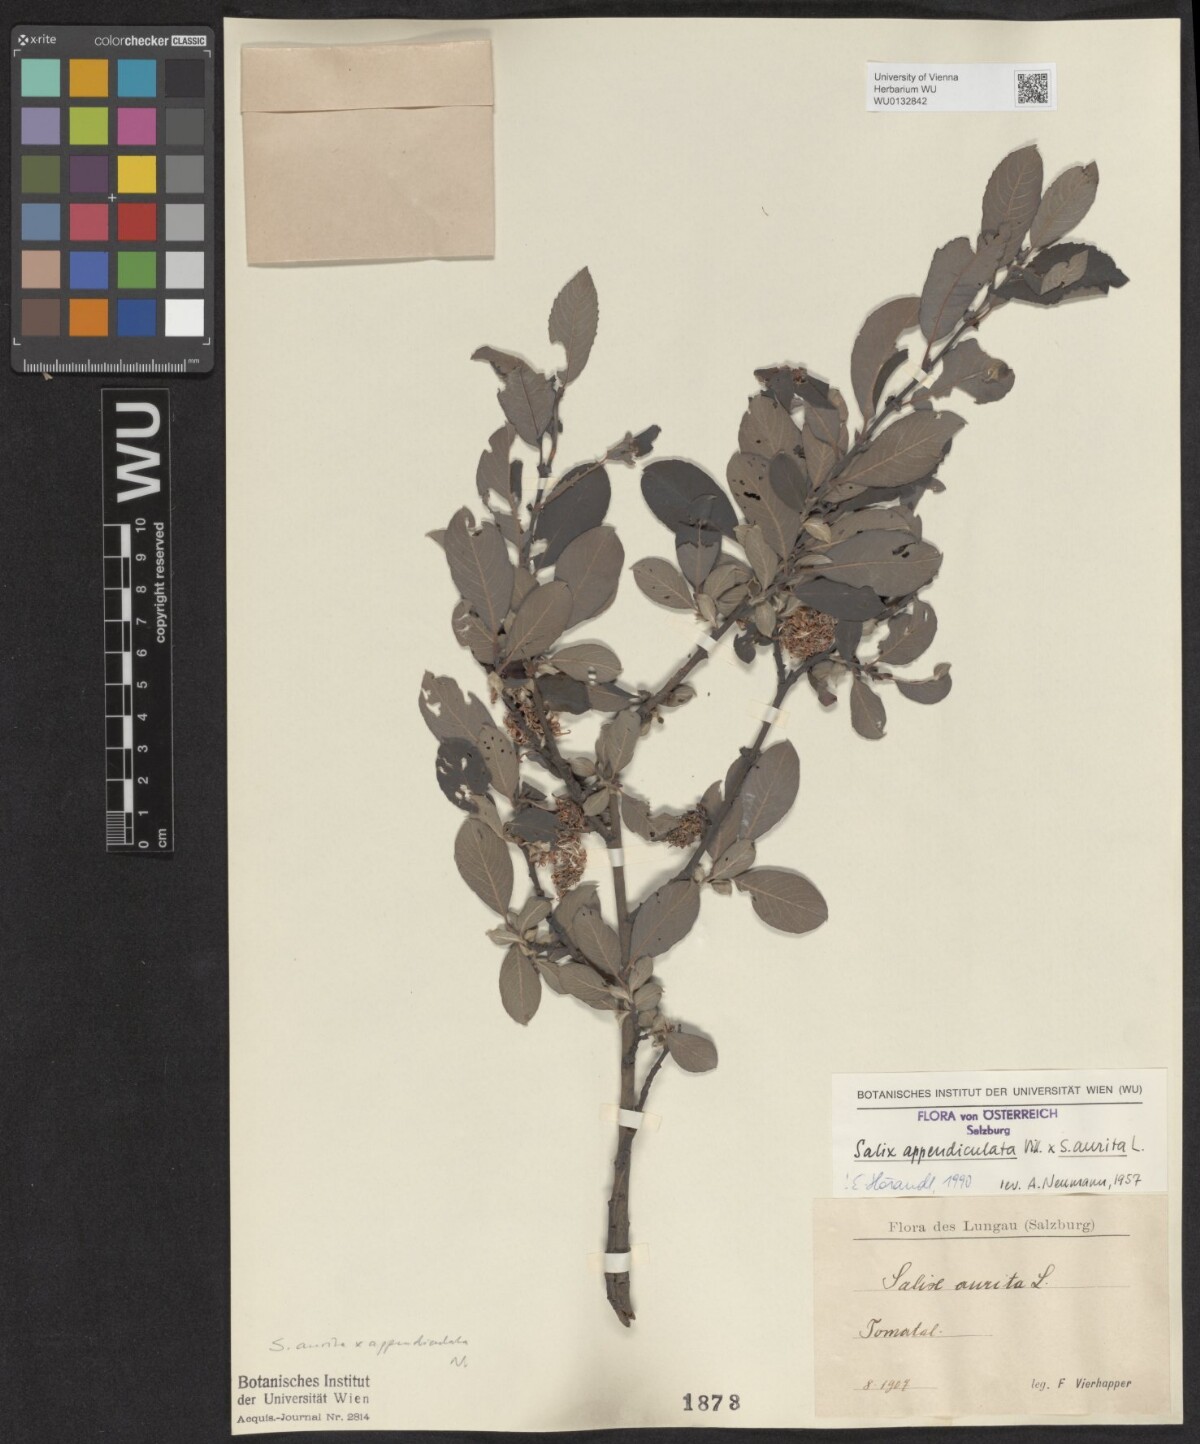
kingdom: Plantae
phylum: Tracheophyta
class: Magnoliopsida
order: Malpighiales
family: Salicaceae
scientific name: Salicaceae
